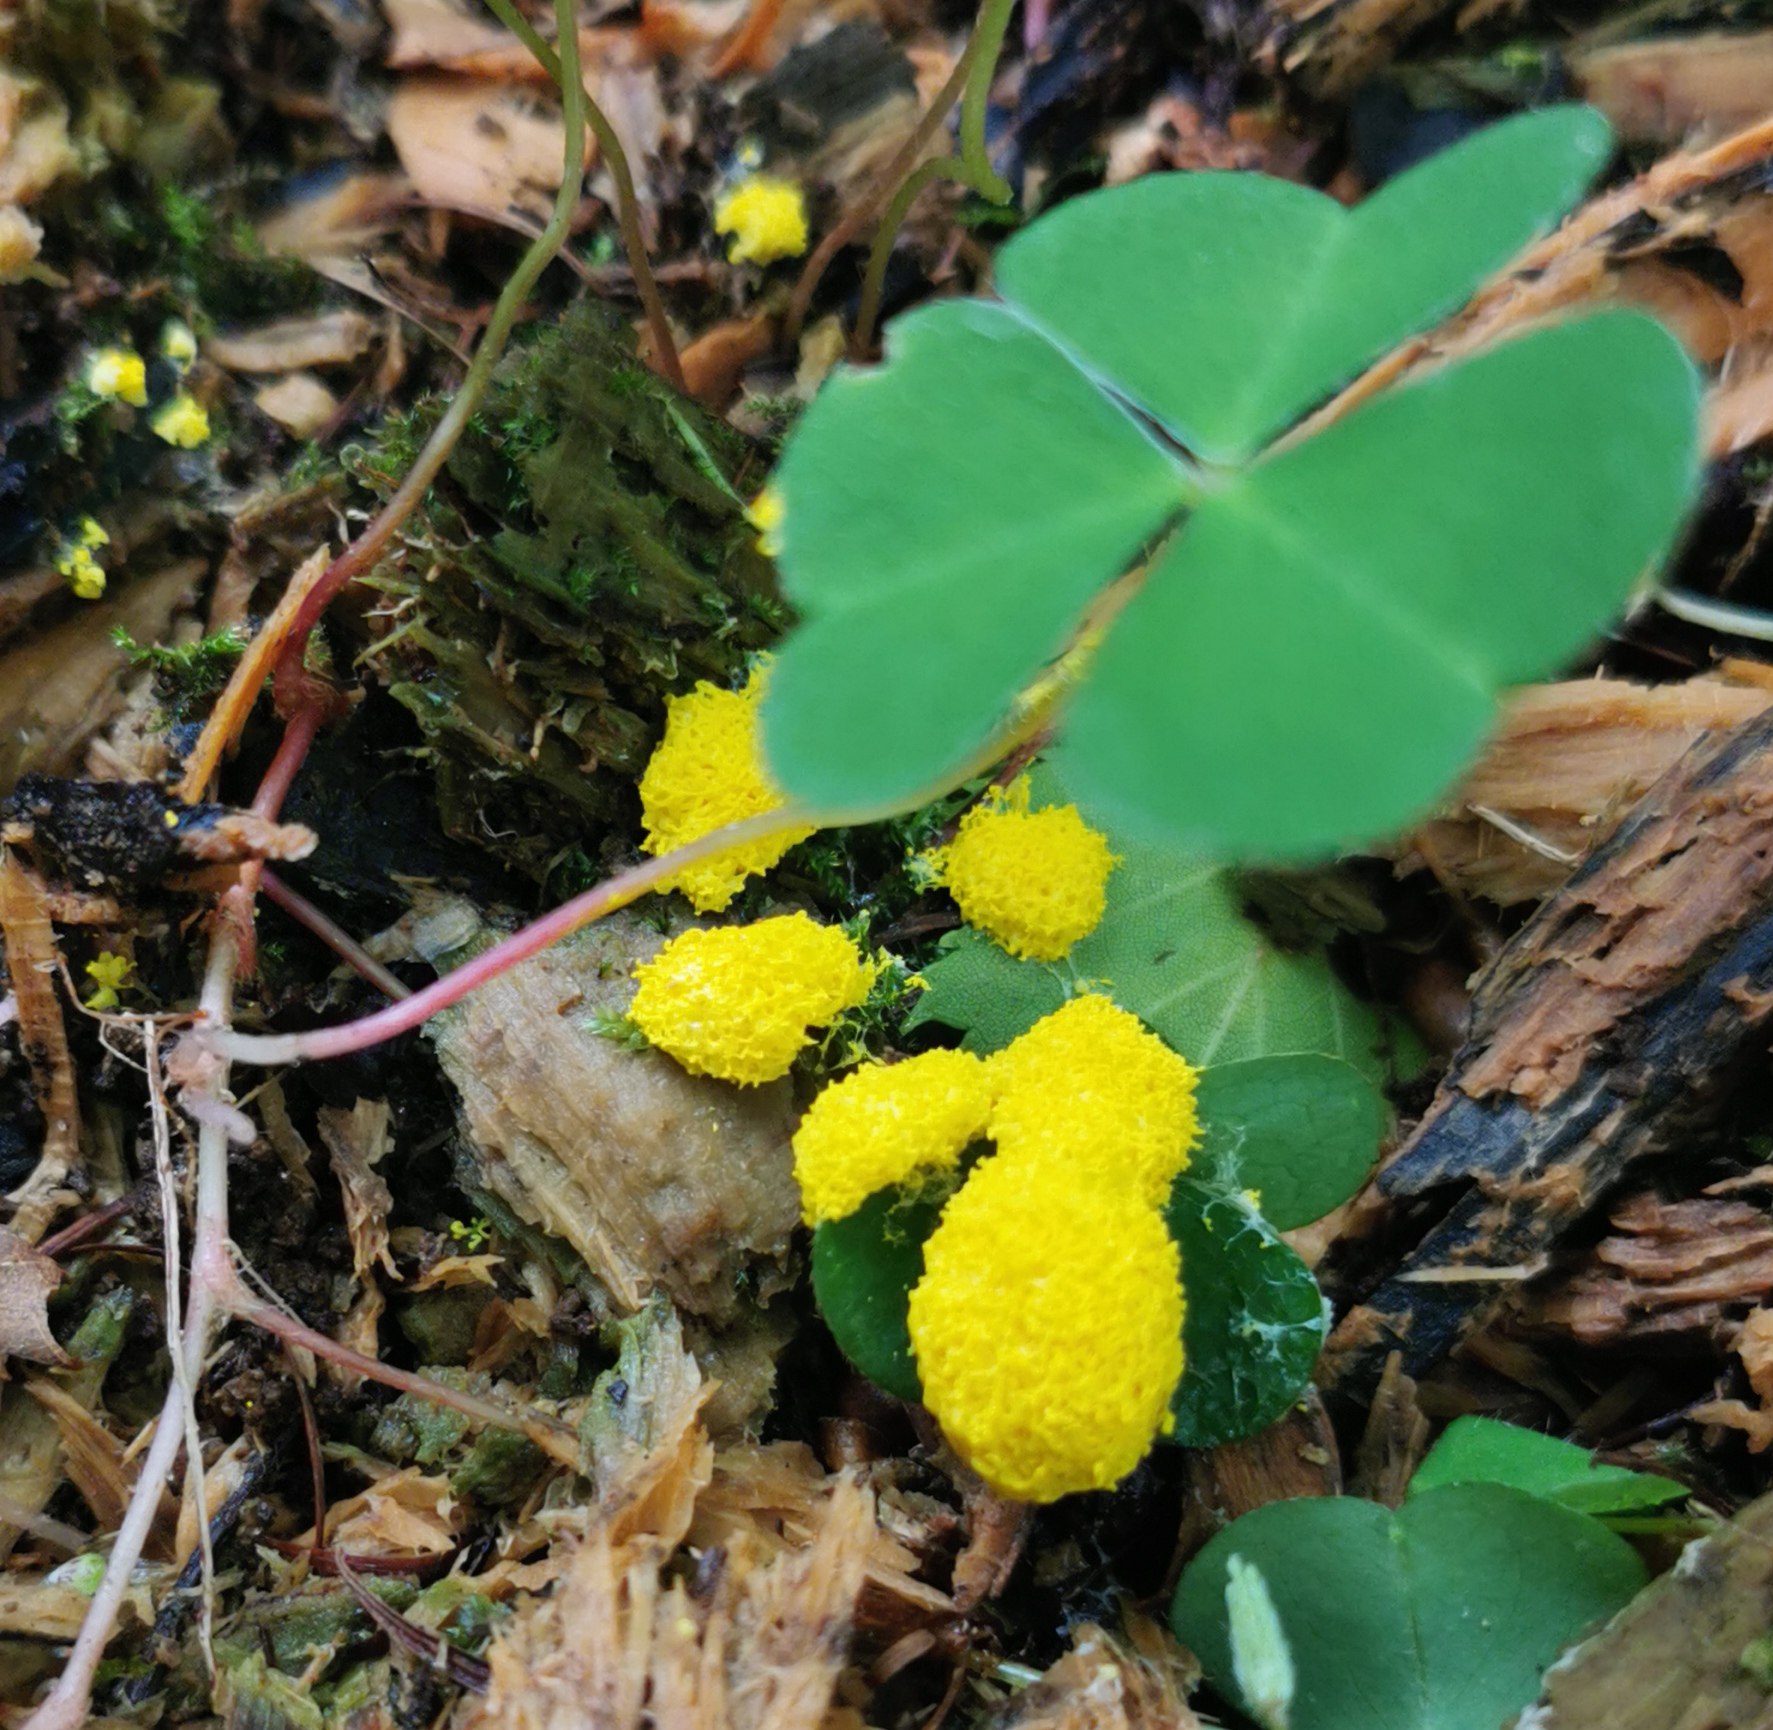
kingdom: Protozoa
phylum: Mycetozoa
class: Myxomycetes
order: Physarales
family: Physaraceae
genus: Fuligo
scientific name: Fuligo septica
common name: gul troldsmør
